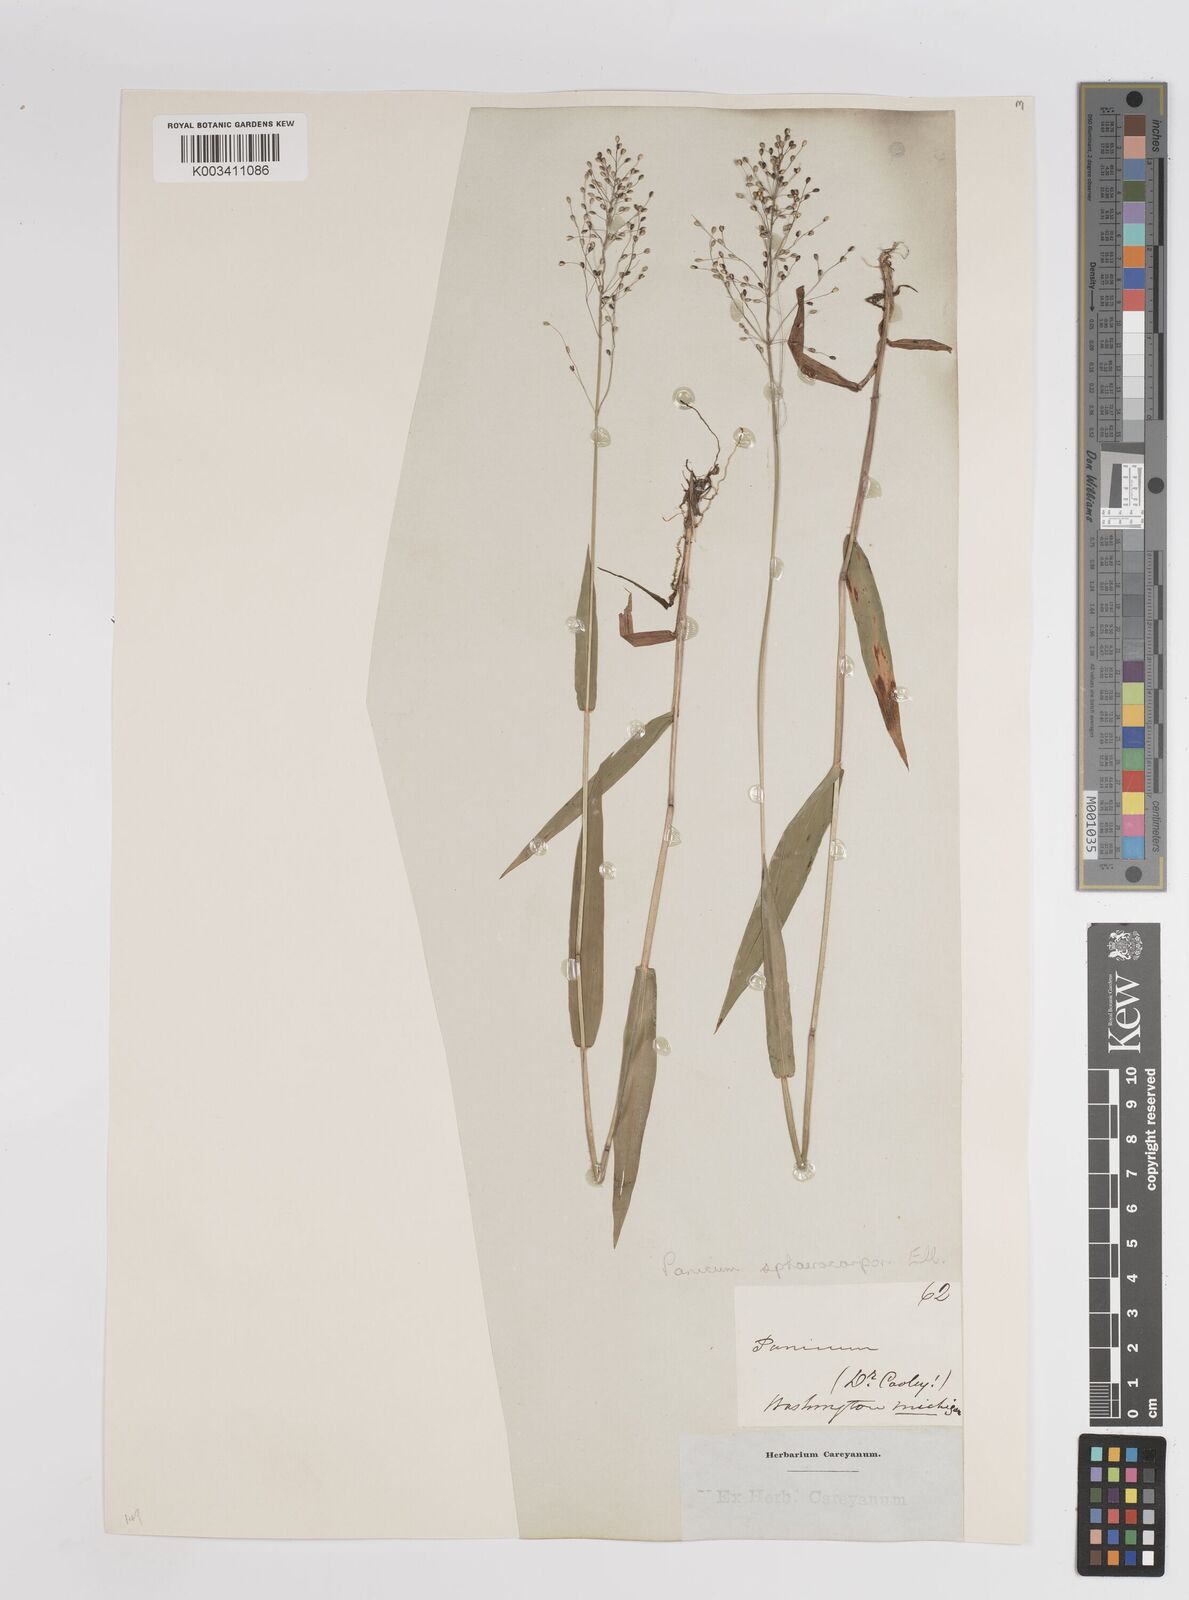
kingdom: Plantae
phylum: Tracheophyta
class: Liliopsida
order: Poales
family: Poaceae
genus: Dichanthelium
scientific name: Dichanthelium sphaerocarpon
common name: Round-fruited panicgrass
